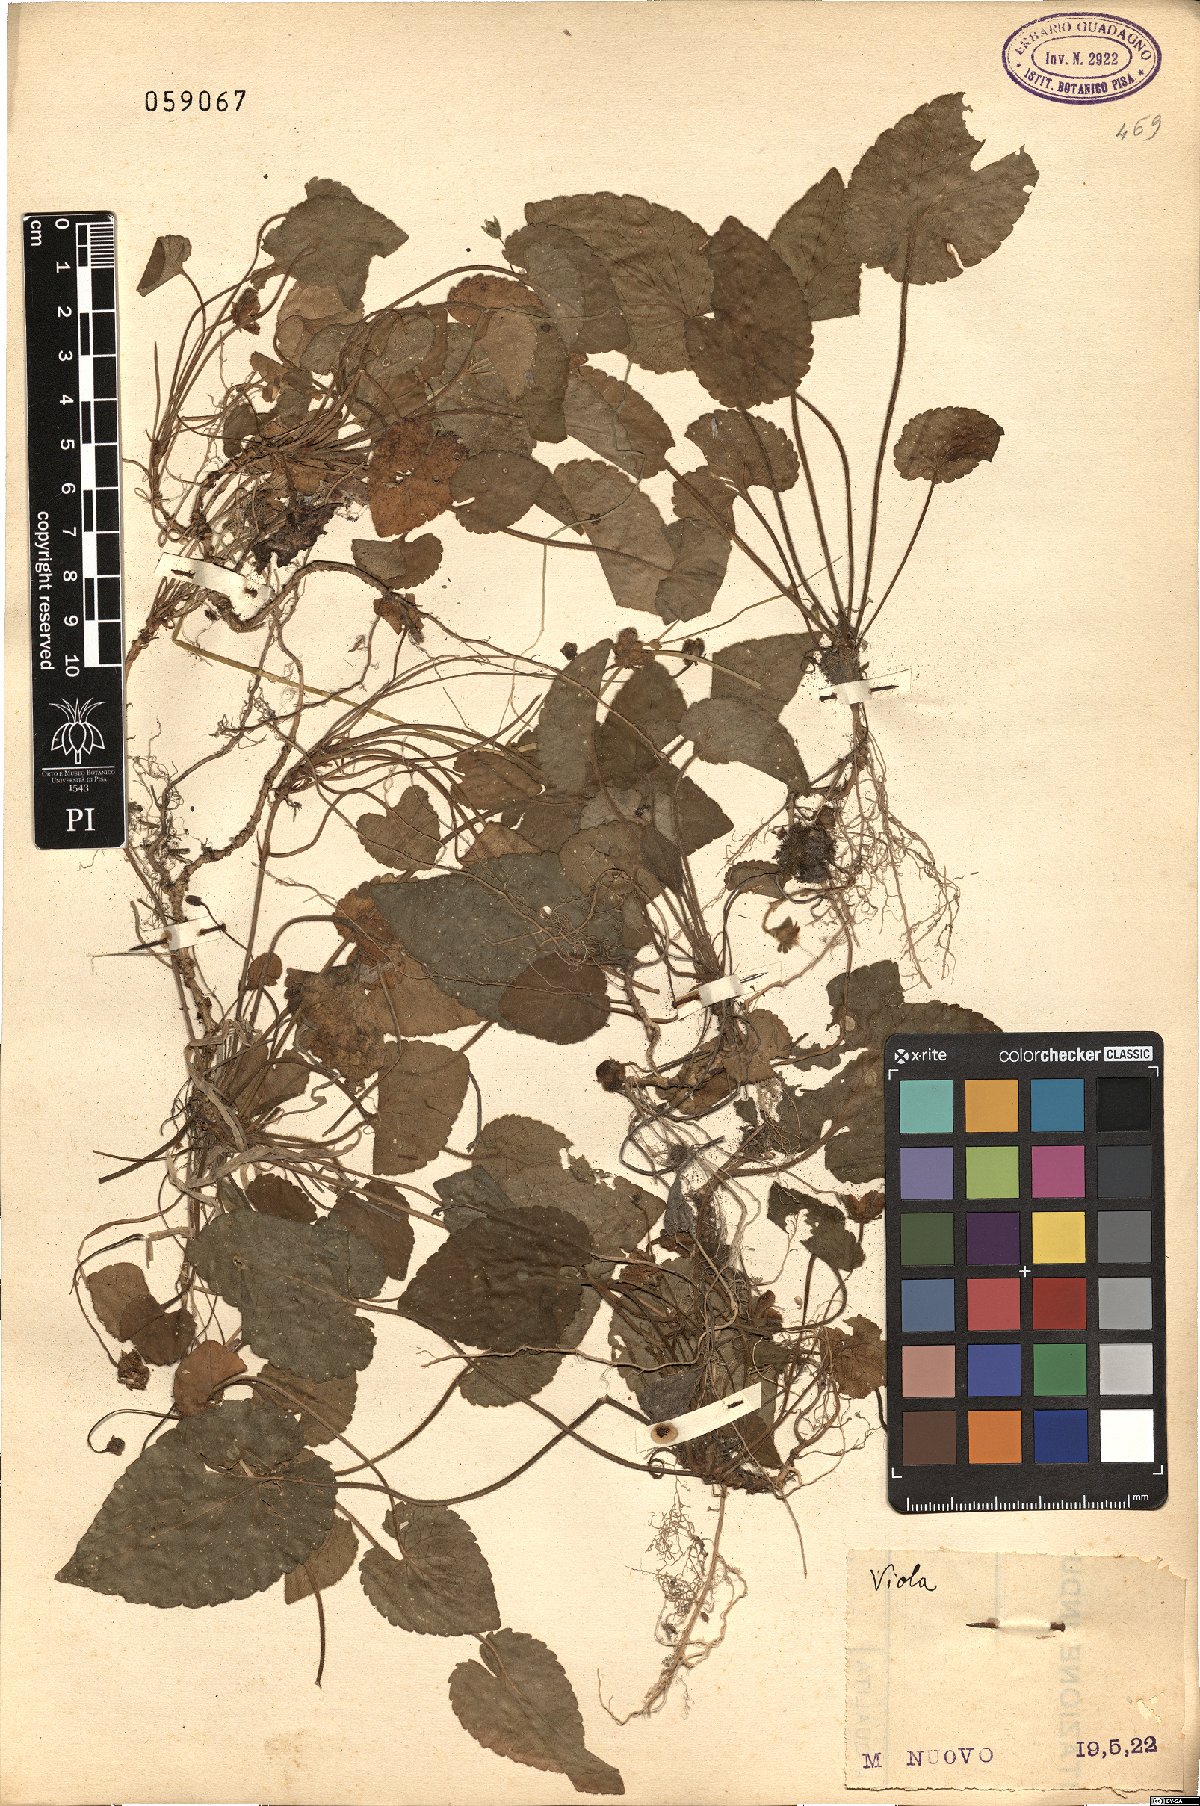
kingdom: Plantae
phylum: Tracheophyta
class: Magnoliopsida
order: Malpighiales
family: Violaceae
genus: Viola
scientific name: Viola
